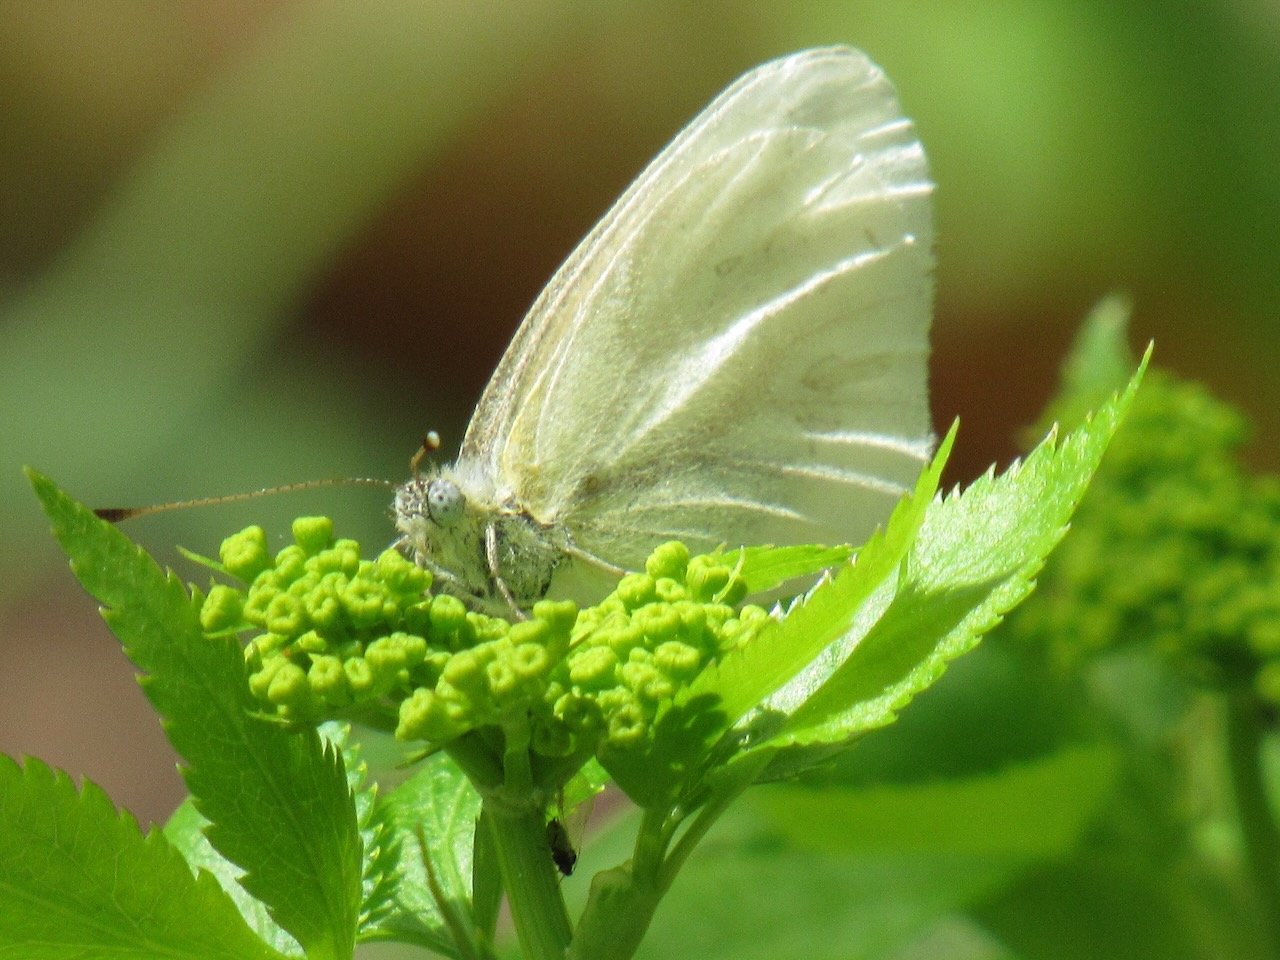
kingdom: Animalia
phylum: Arthropoda
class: Insecta
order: Lepidoptera
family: Pieridae
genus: Pieris
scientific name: Pieris virginiensis
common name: West Virginia White
